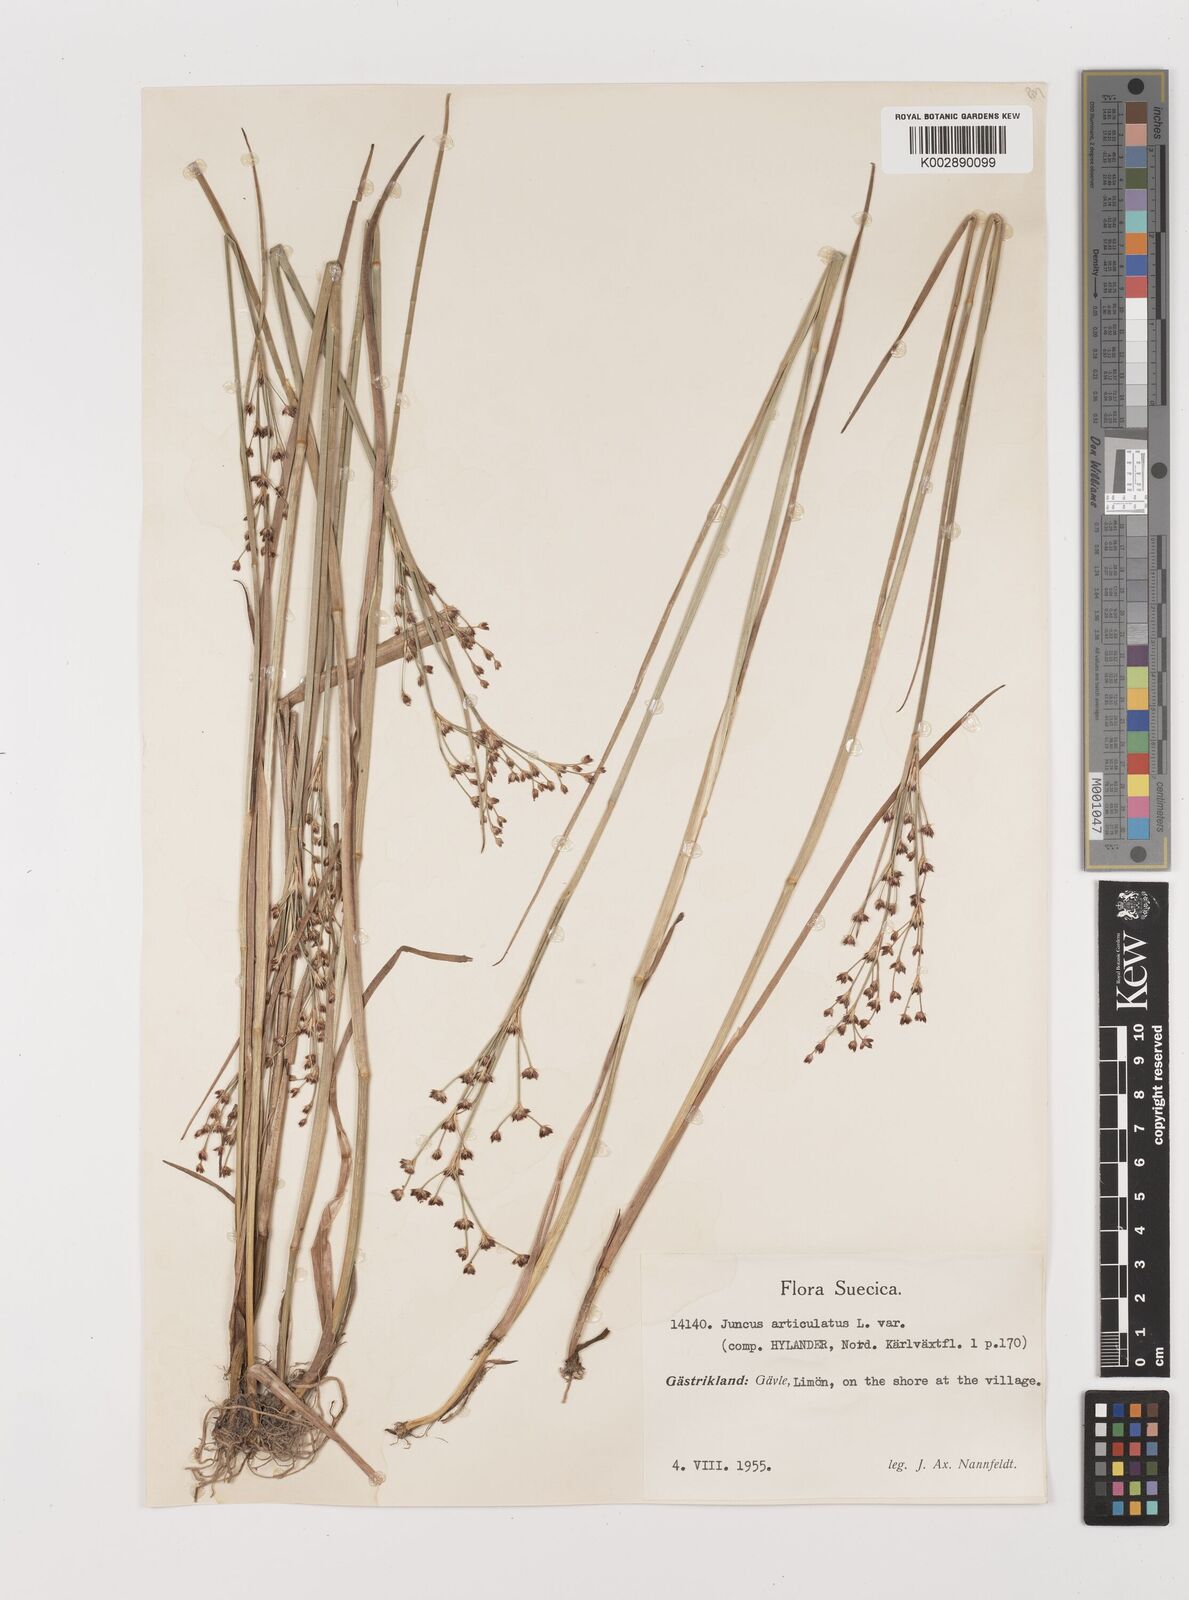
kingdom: Plantae
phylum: Tracheophyta
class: Liliopsida
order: Poales
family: Juncaceae
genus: Juncus
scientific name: Juncus articulatus
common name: Jointed rush
